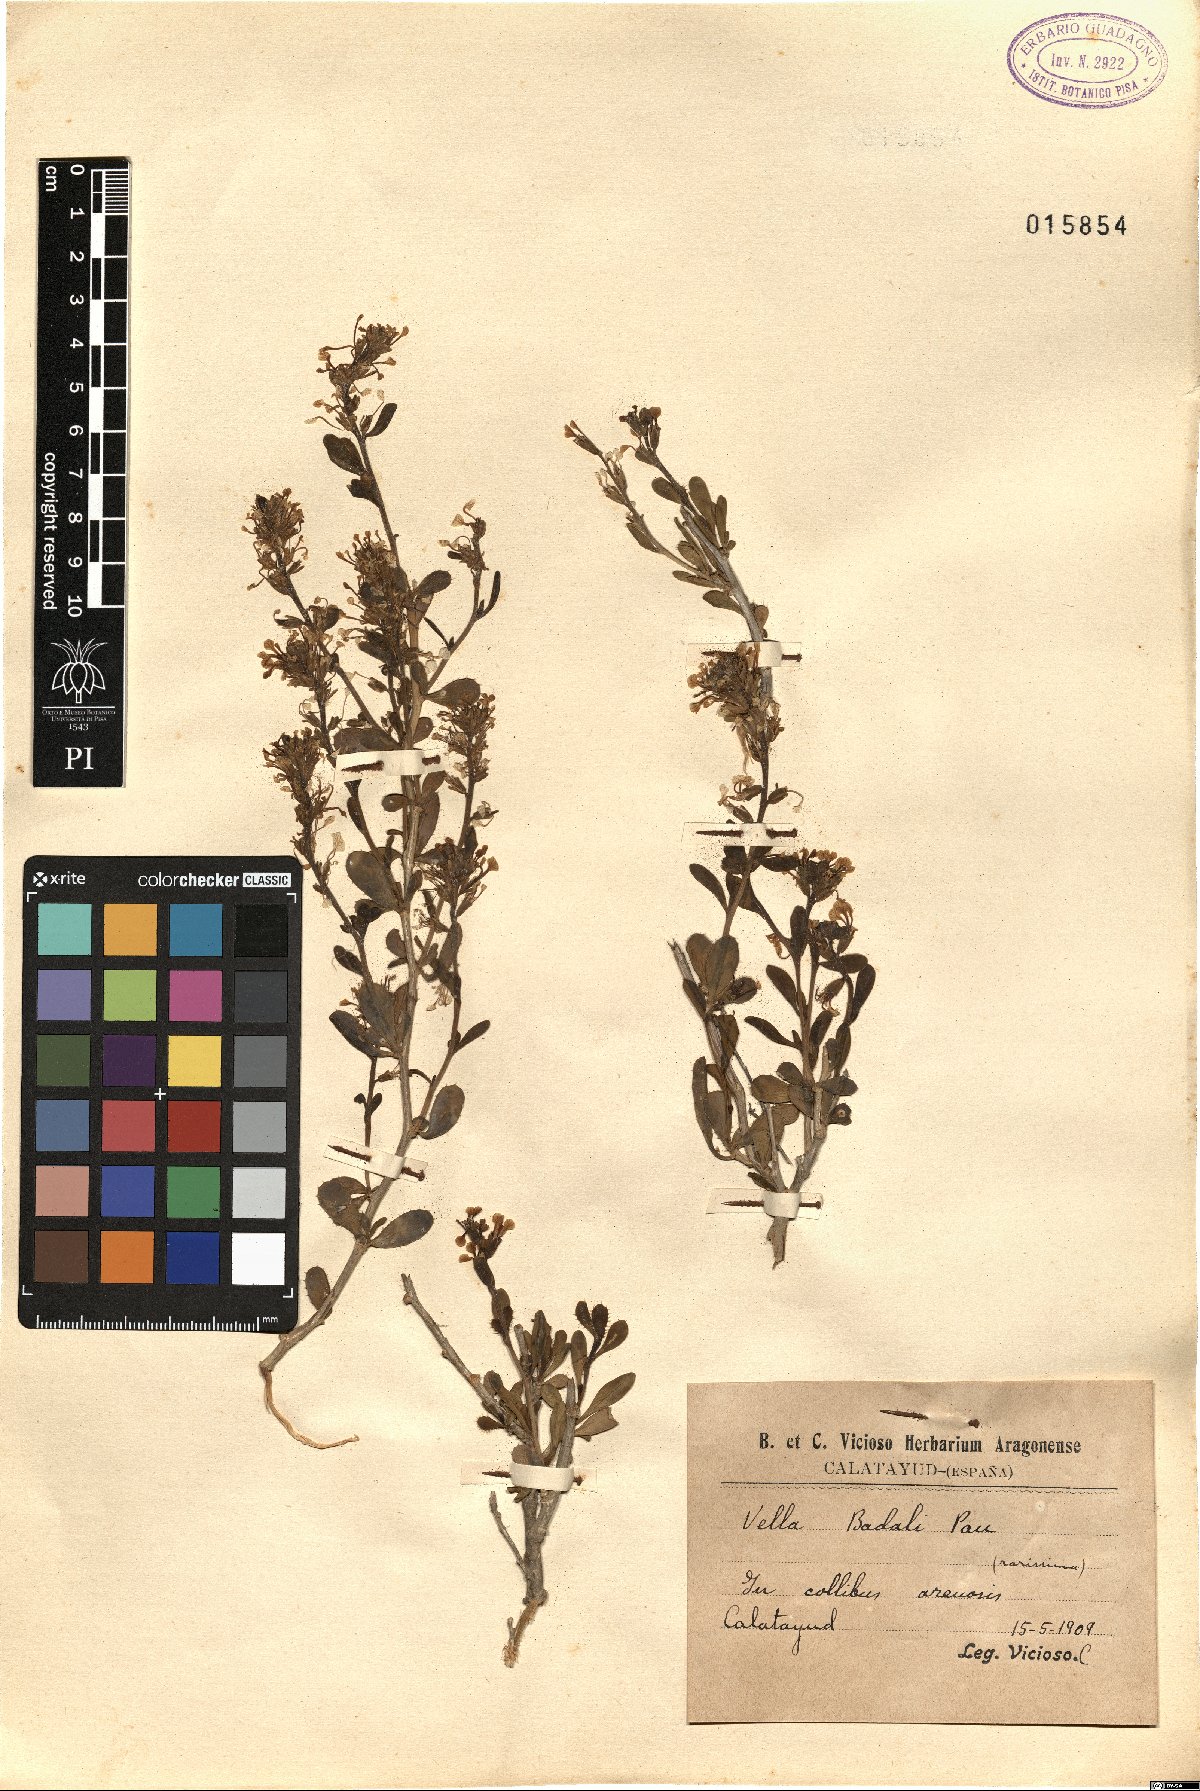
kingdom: Plantae
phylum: Tracheophyta
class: Magnoliopsida
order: Brassicales
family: Brassicaceae
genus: Vella
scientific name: Vella pseudocytisus
